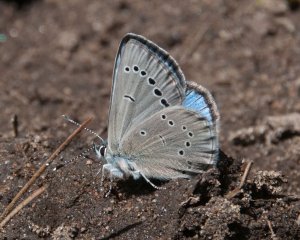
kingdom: Animalia
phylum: Arthropoda
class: Insecta
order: Lepidoptera
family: Lycaenidae
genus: Glaucopsyche
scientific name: Glaucopsyche lygdamus
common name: Silvery Blue
